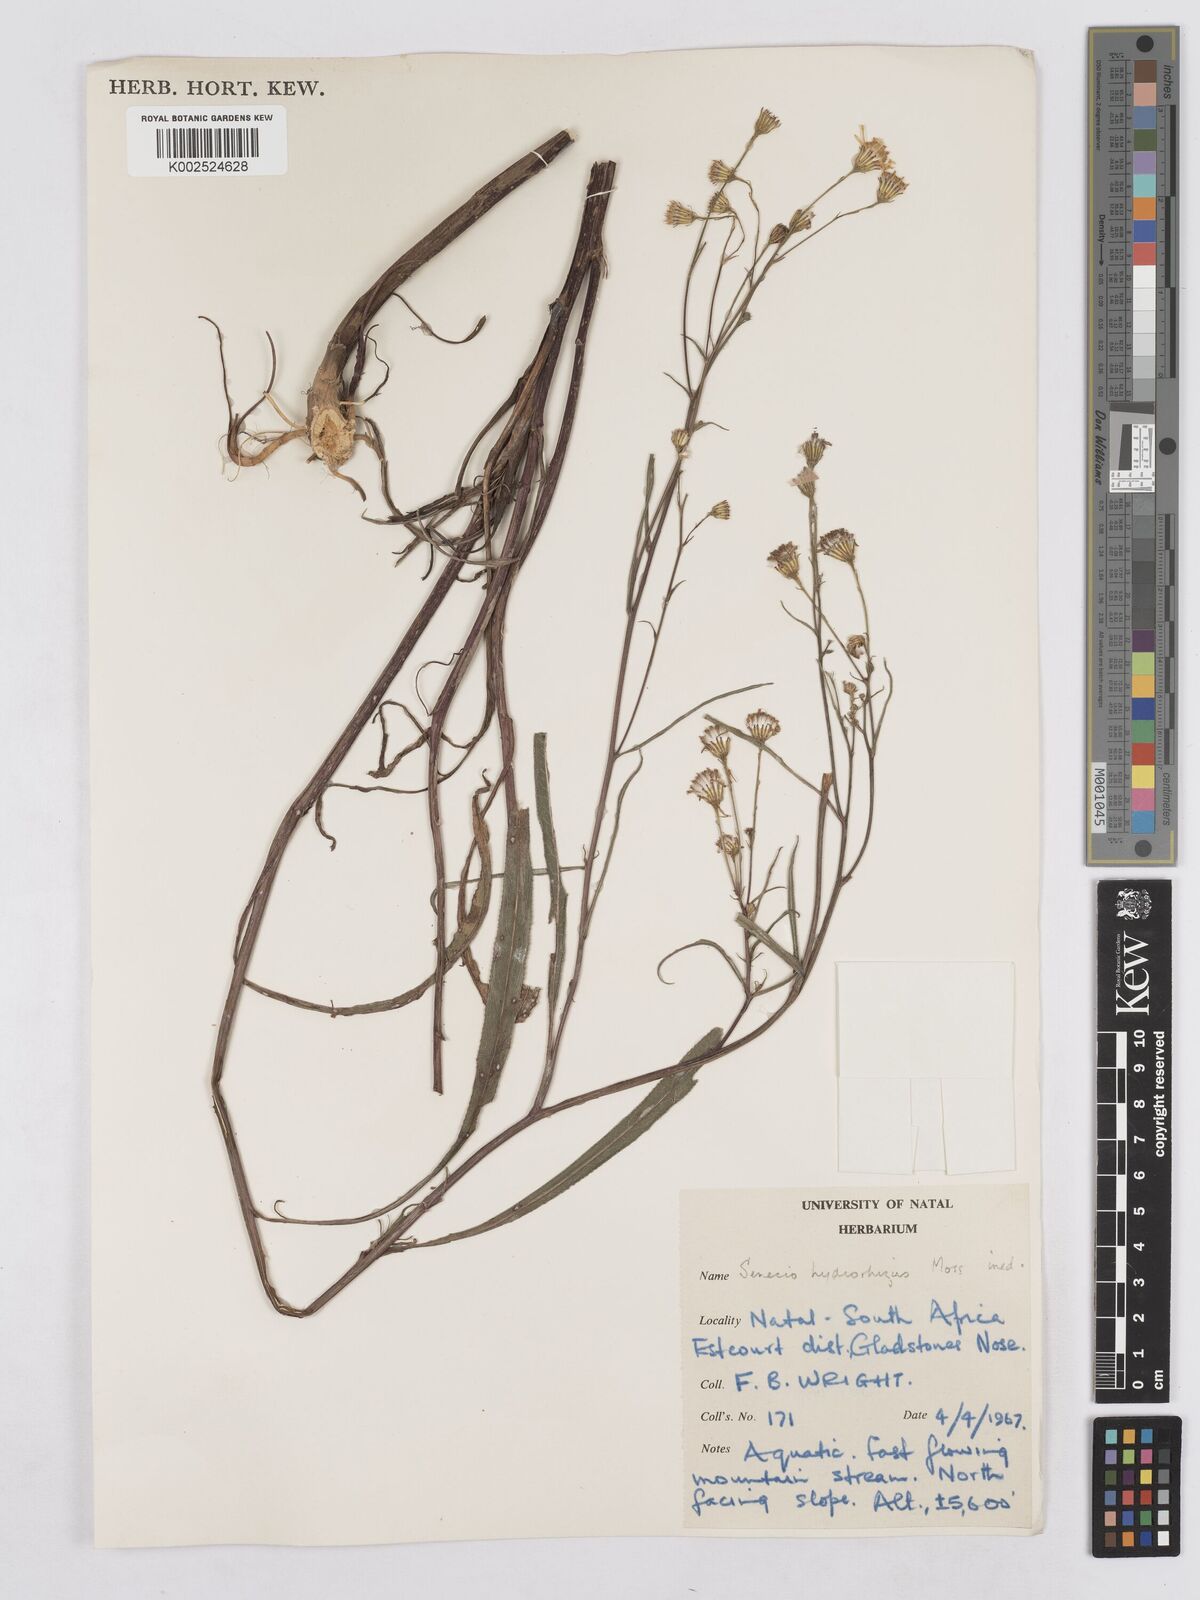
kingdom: Plantae
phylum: Tracheophyta
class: Magnoliopsida
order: Asterales
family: Asteraceae
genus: Senecio
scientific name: Senecio inornatus
